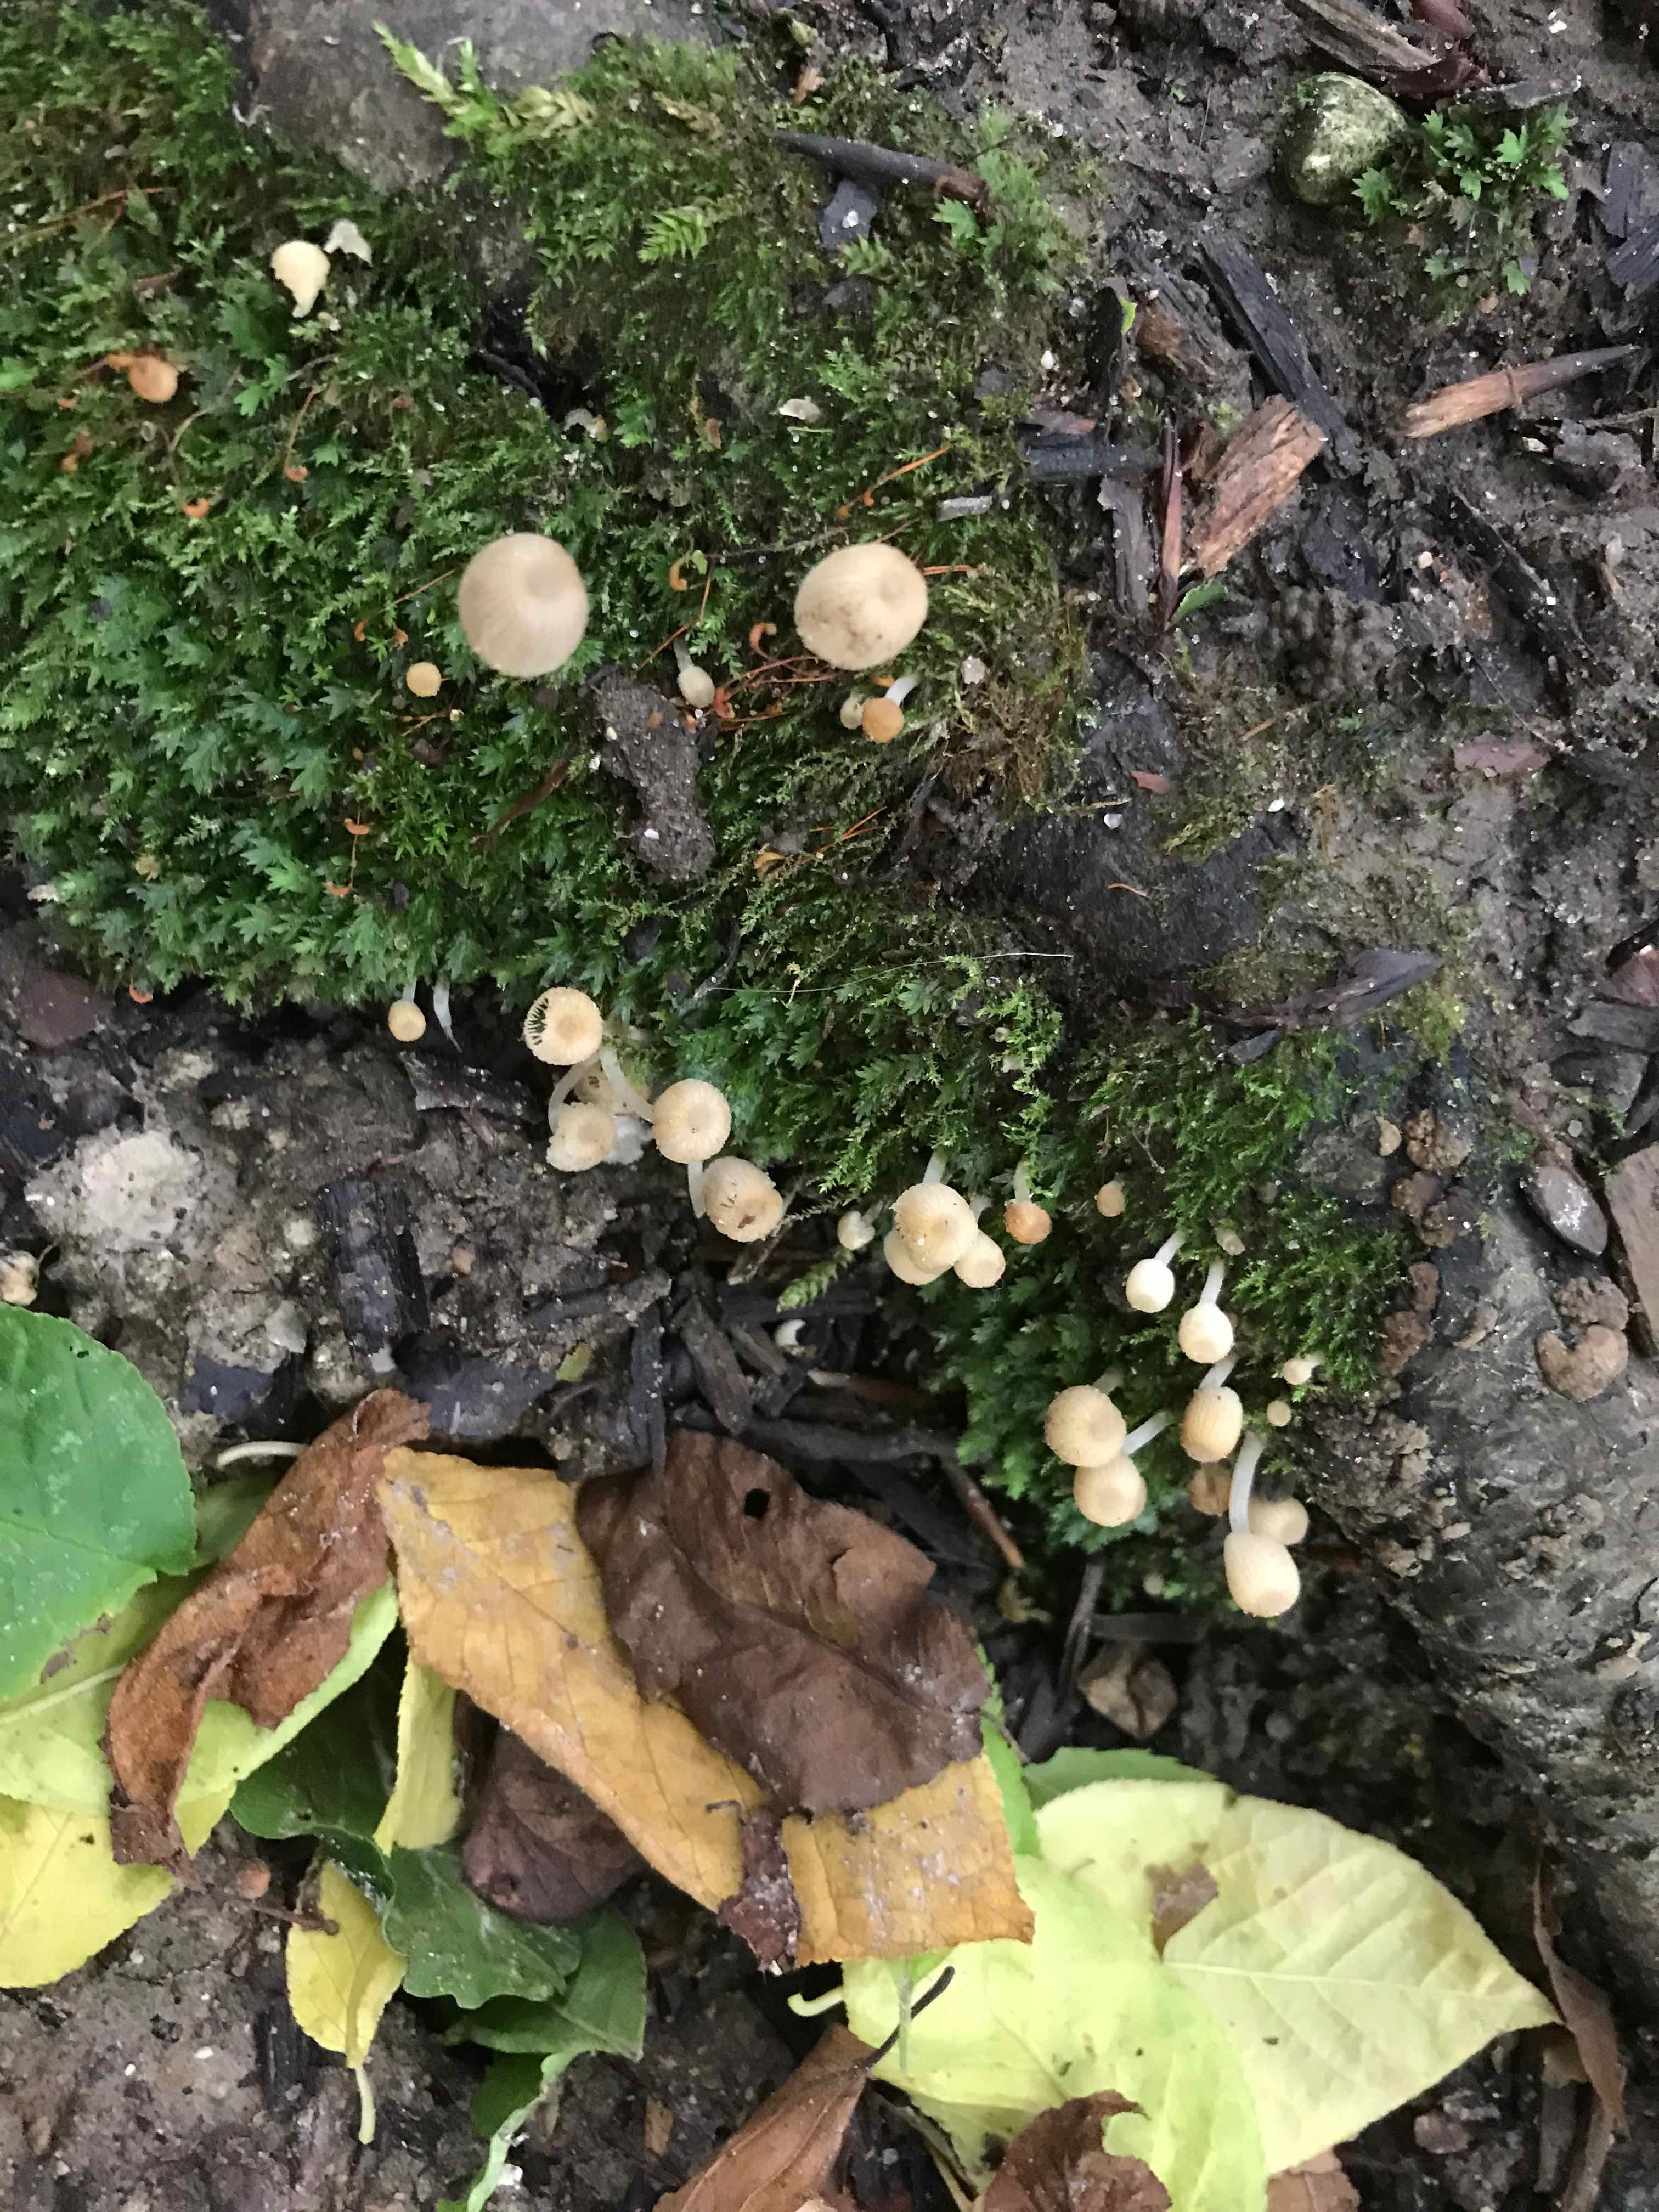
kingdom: Fungi
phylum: Basidiomycota
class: Agaricomycetes
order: Agaricales
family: Psathyrellaceae
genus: Coprinellus
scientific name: Coprinellus disseminatus
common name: bredsået blækhat
